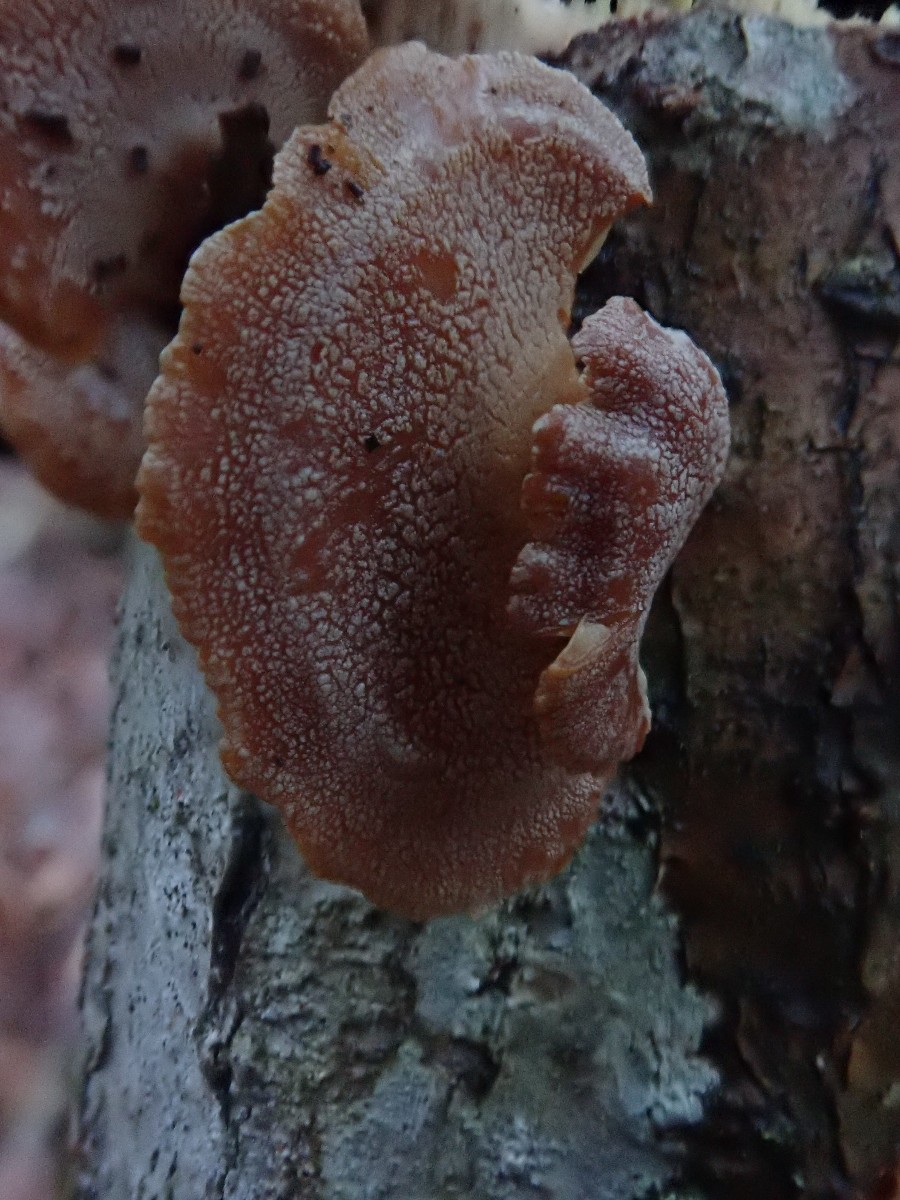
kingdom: Fungi
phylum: Basidiomycota
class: Agaricomycetes
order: Agaricales
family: Mycenaceae
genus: Panellus
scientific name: Panellus stipticus
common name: kliddet epaulethat
